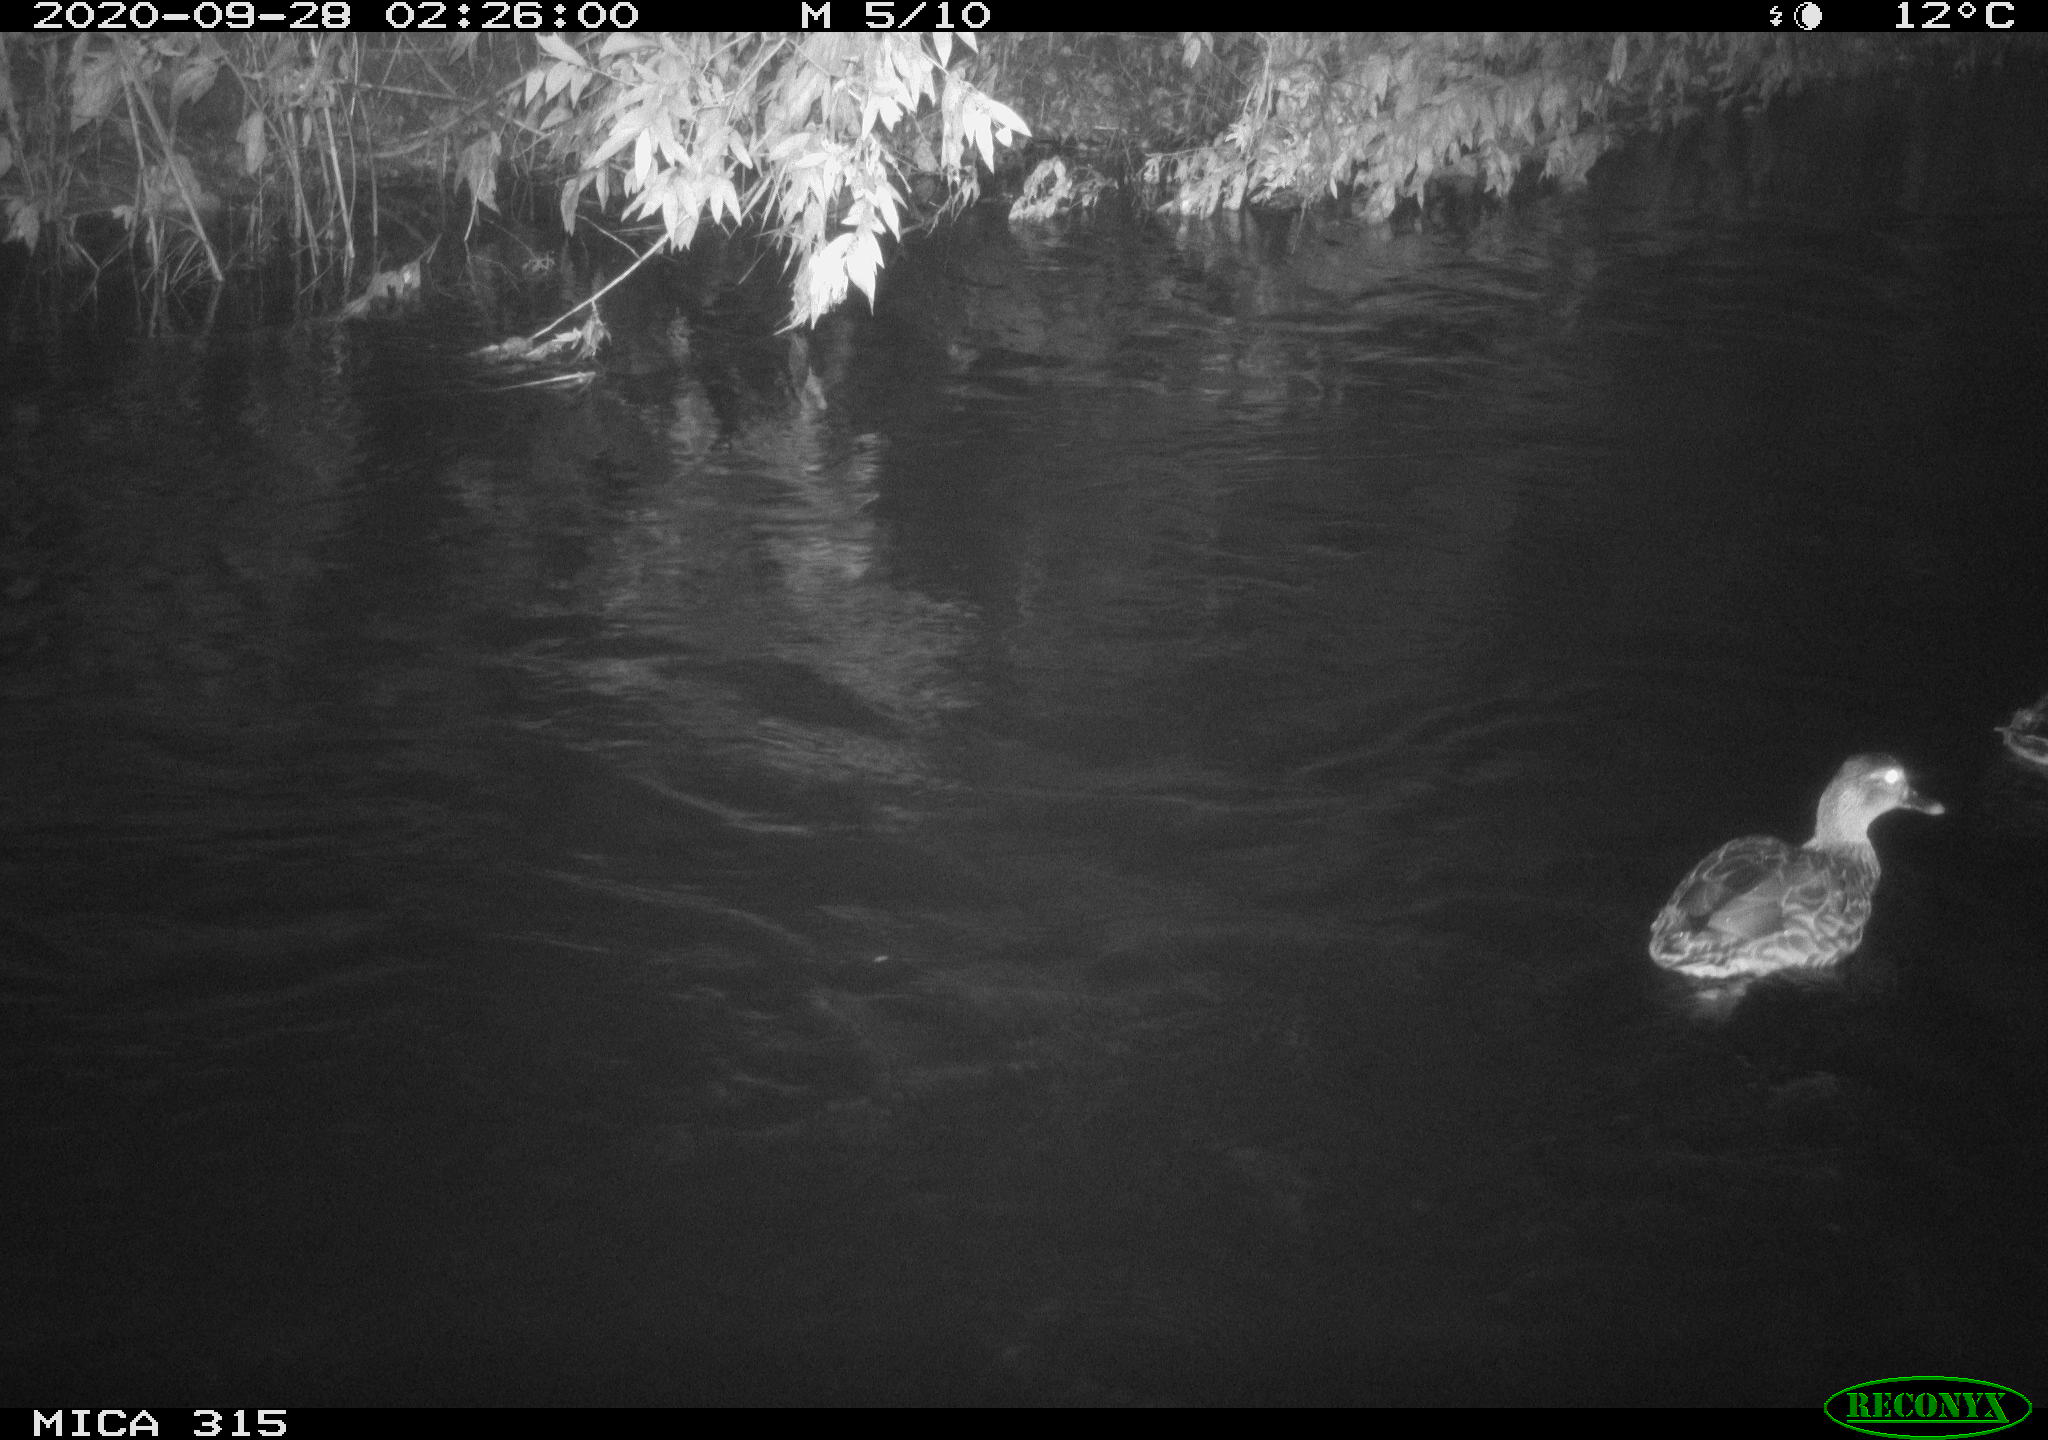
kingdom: Animalia
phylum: Chordata
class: Aves
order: Anseriformes
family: Anatidae
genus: Anas
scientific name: Anas platyrhynchos
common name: Mallard
